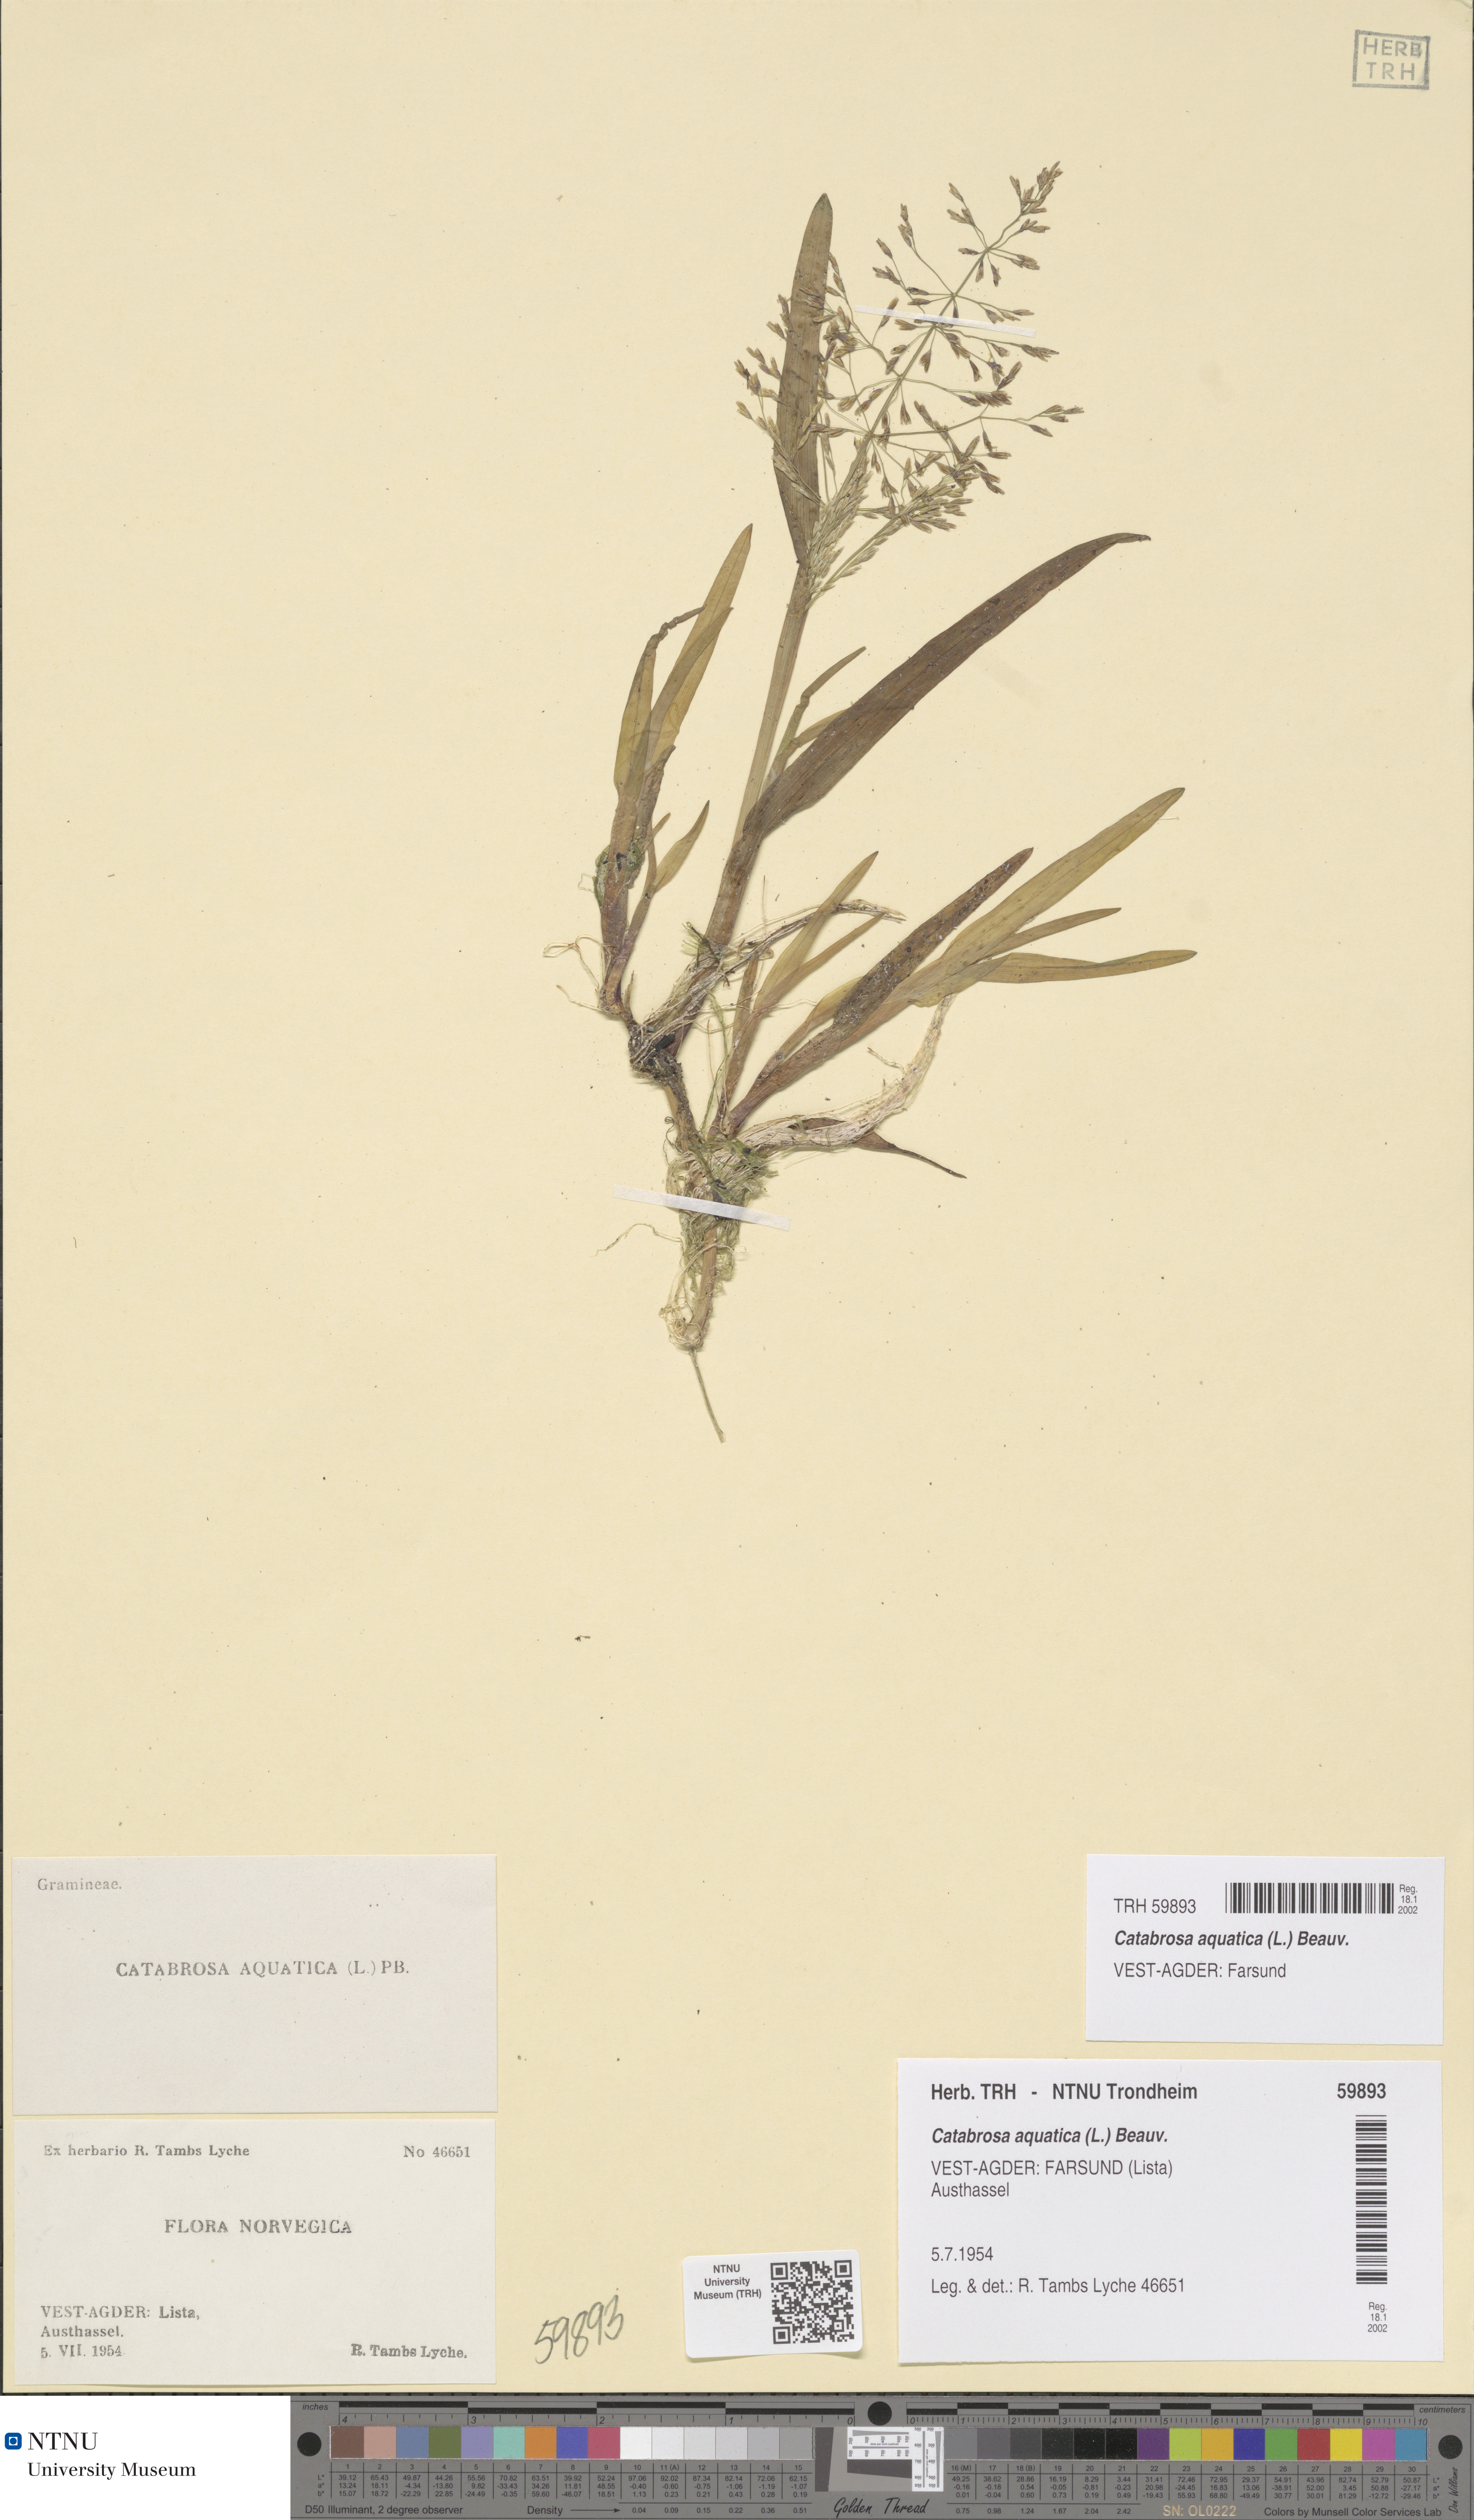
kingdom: Plantae
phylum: Tracheophyta
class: Liliopsida
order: Poales
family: Poaceae
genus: Catabrosa
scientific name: Catabrosa aquatica
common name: Whorl-grass
